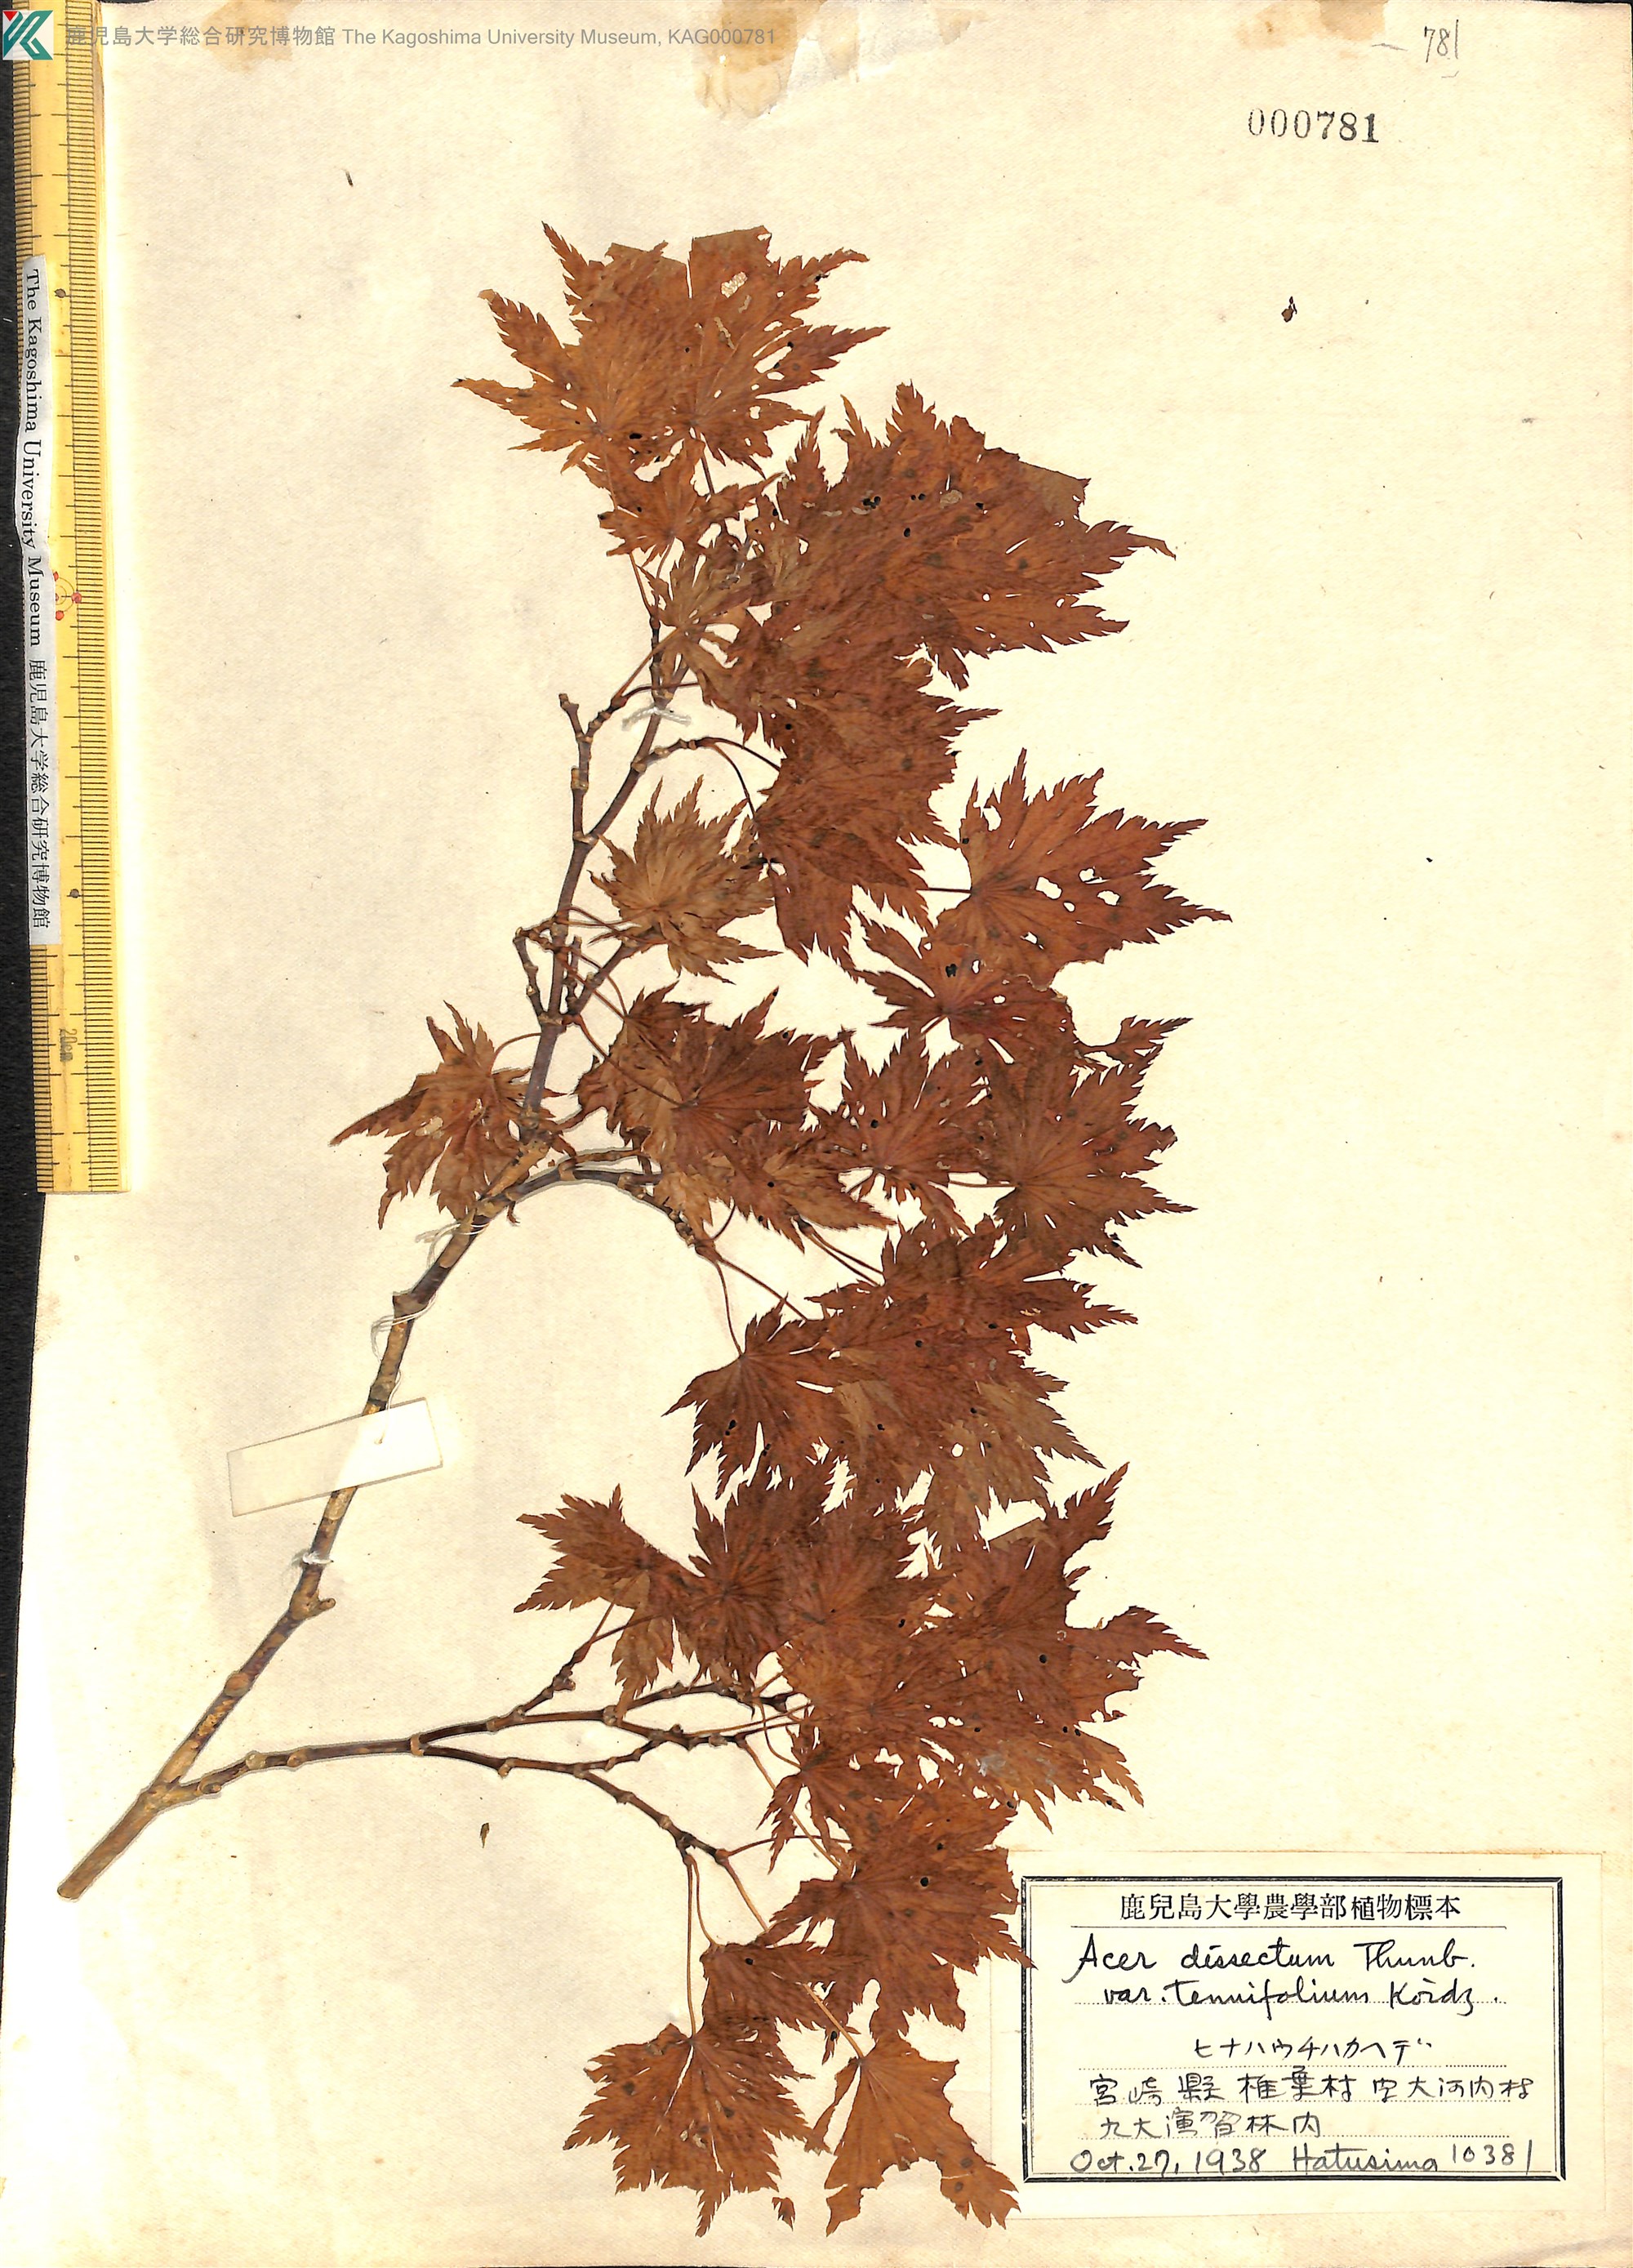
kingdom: Plantae
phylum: Tracheophyta
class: Magnoliopsida
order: Sapindales
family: Sapindaceae
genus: Acer
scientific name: Acer shirasawanum
